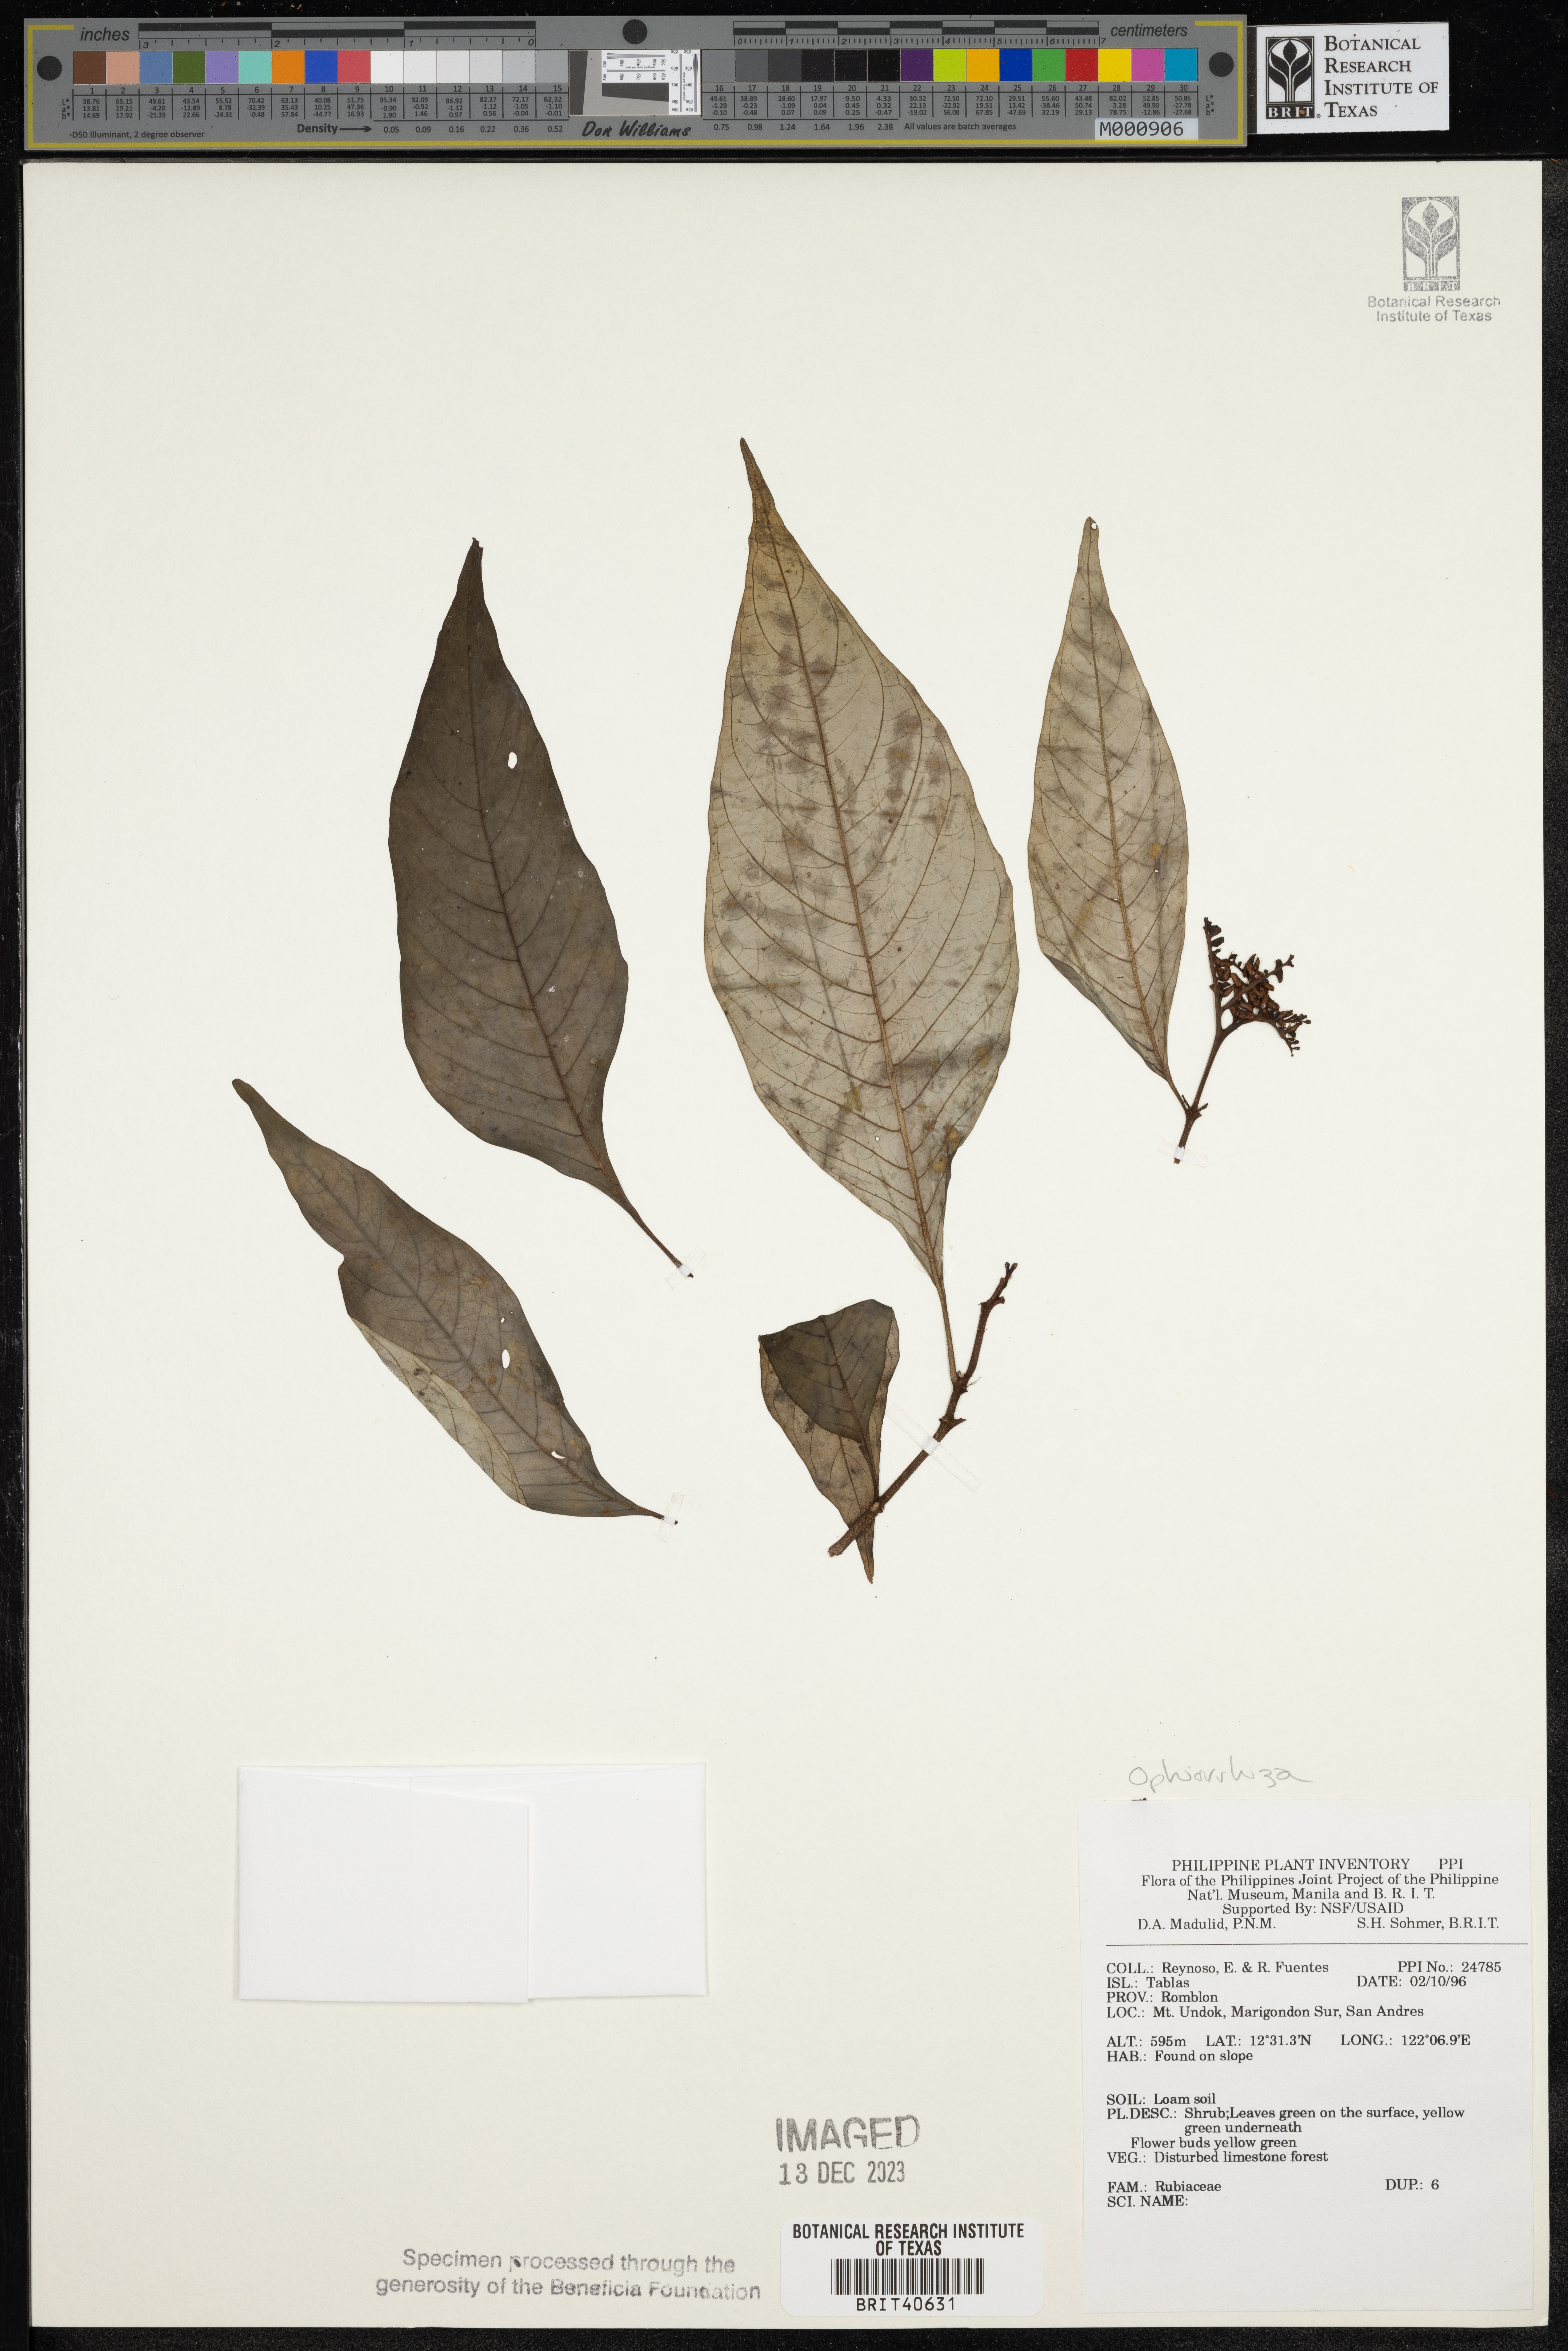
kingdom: Plantae
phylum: Tracheophyta
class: Magnoliopsida
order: Gentianales
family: Rubiaceae
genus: Ophiorrhiza
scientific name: Ophiorrhiza
